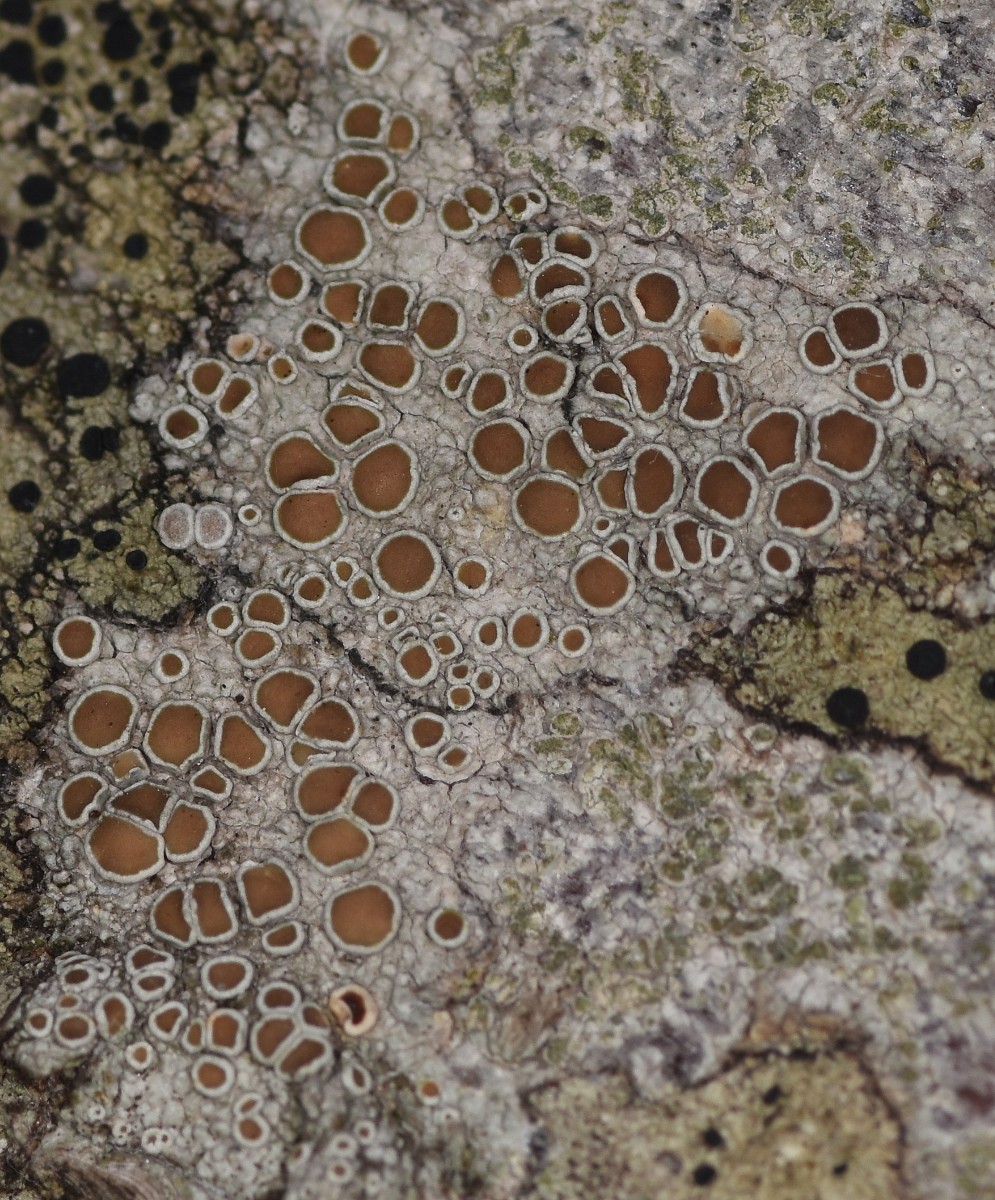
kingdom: Fungi
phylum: Ascomycota
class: Lecanoromycetes
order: Lecanorales
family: Lecanoraceae
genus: Lecanora
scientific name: Lecanora chlarotera
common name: brun kantskivelav
